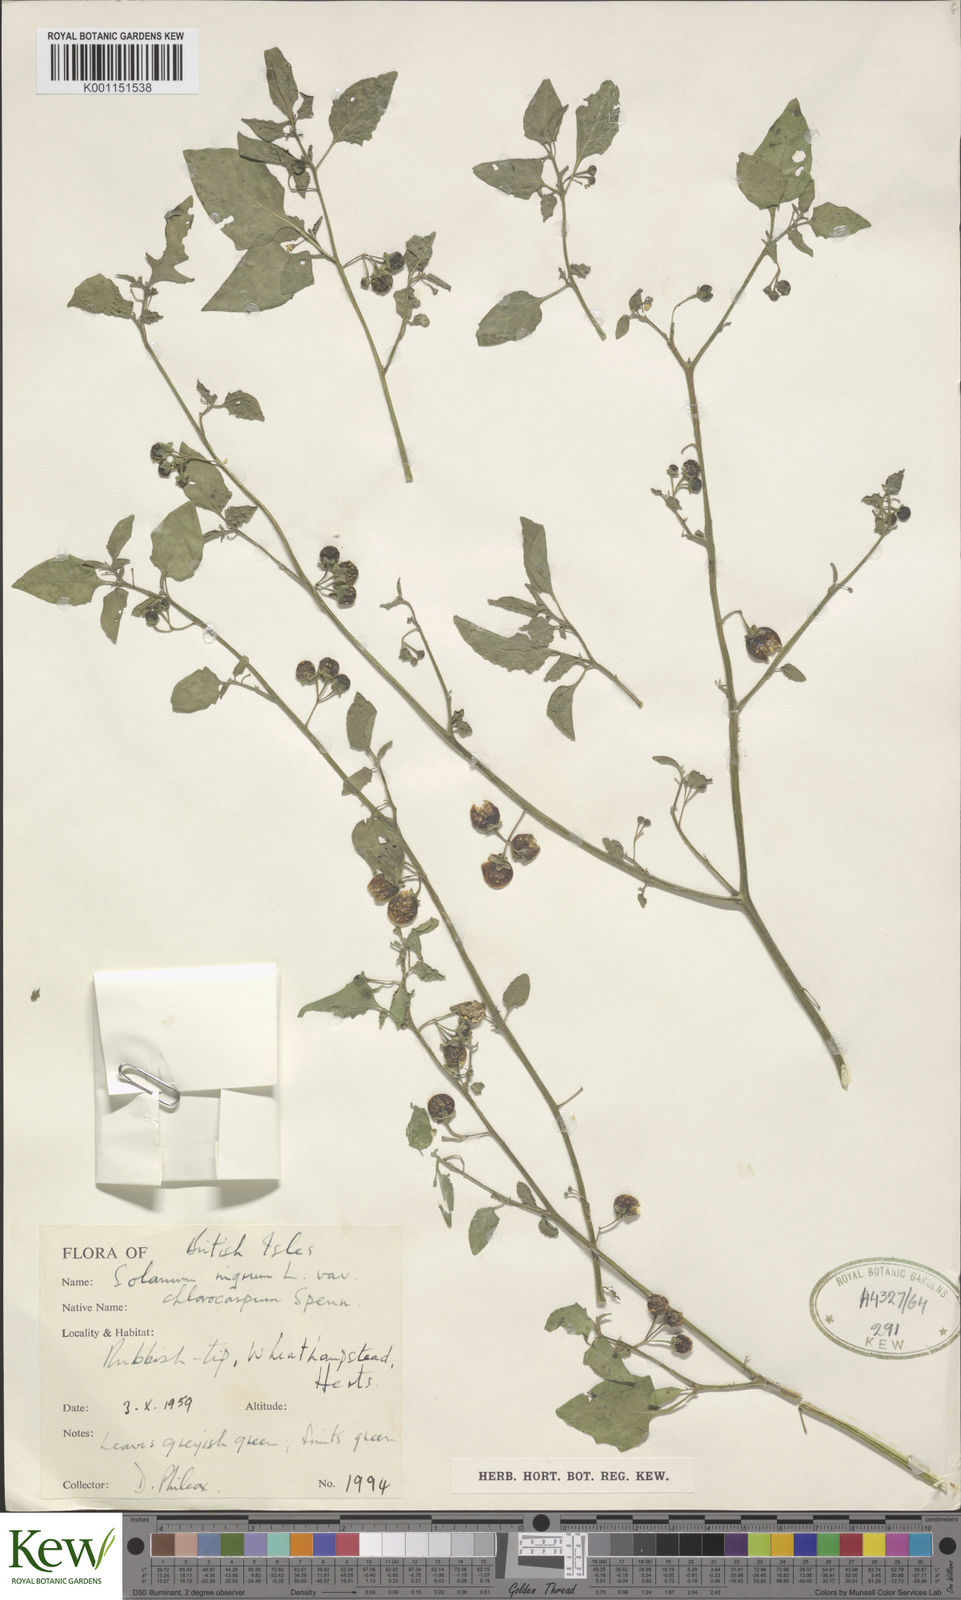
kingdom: Plantae
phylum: Tracheophyta
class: Magnoliopsida
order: Solanales
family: Solanaceae
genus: Solanum
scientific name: Solanum nigrum
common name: Black nightshade
